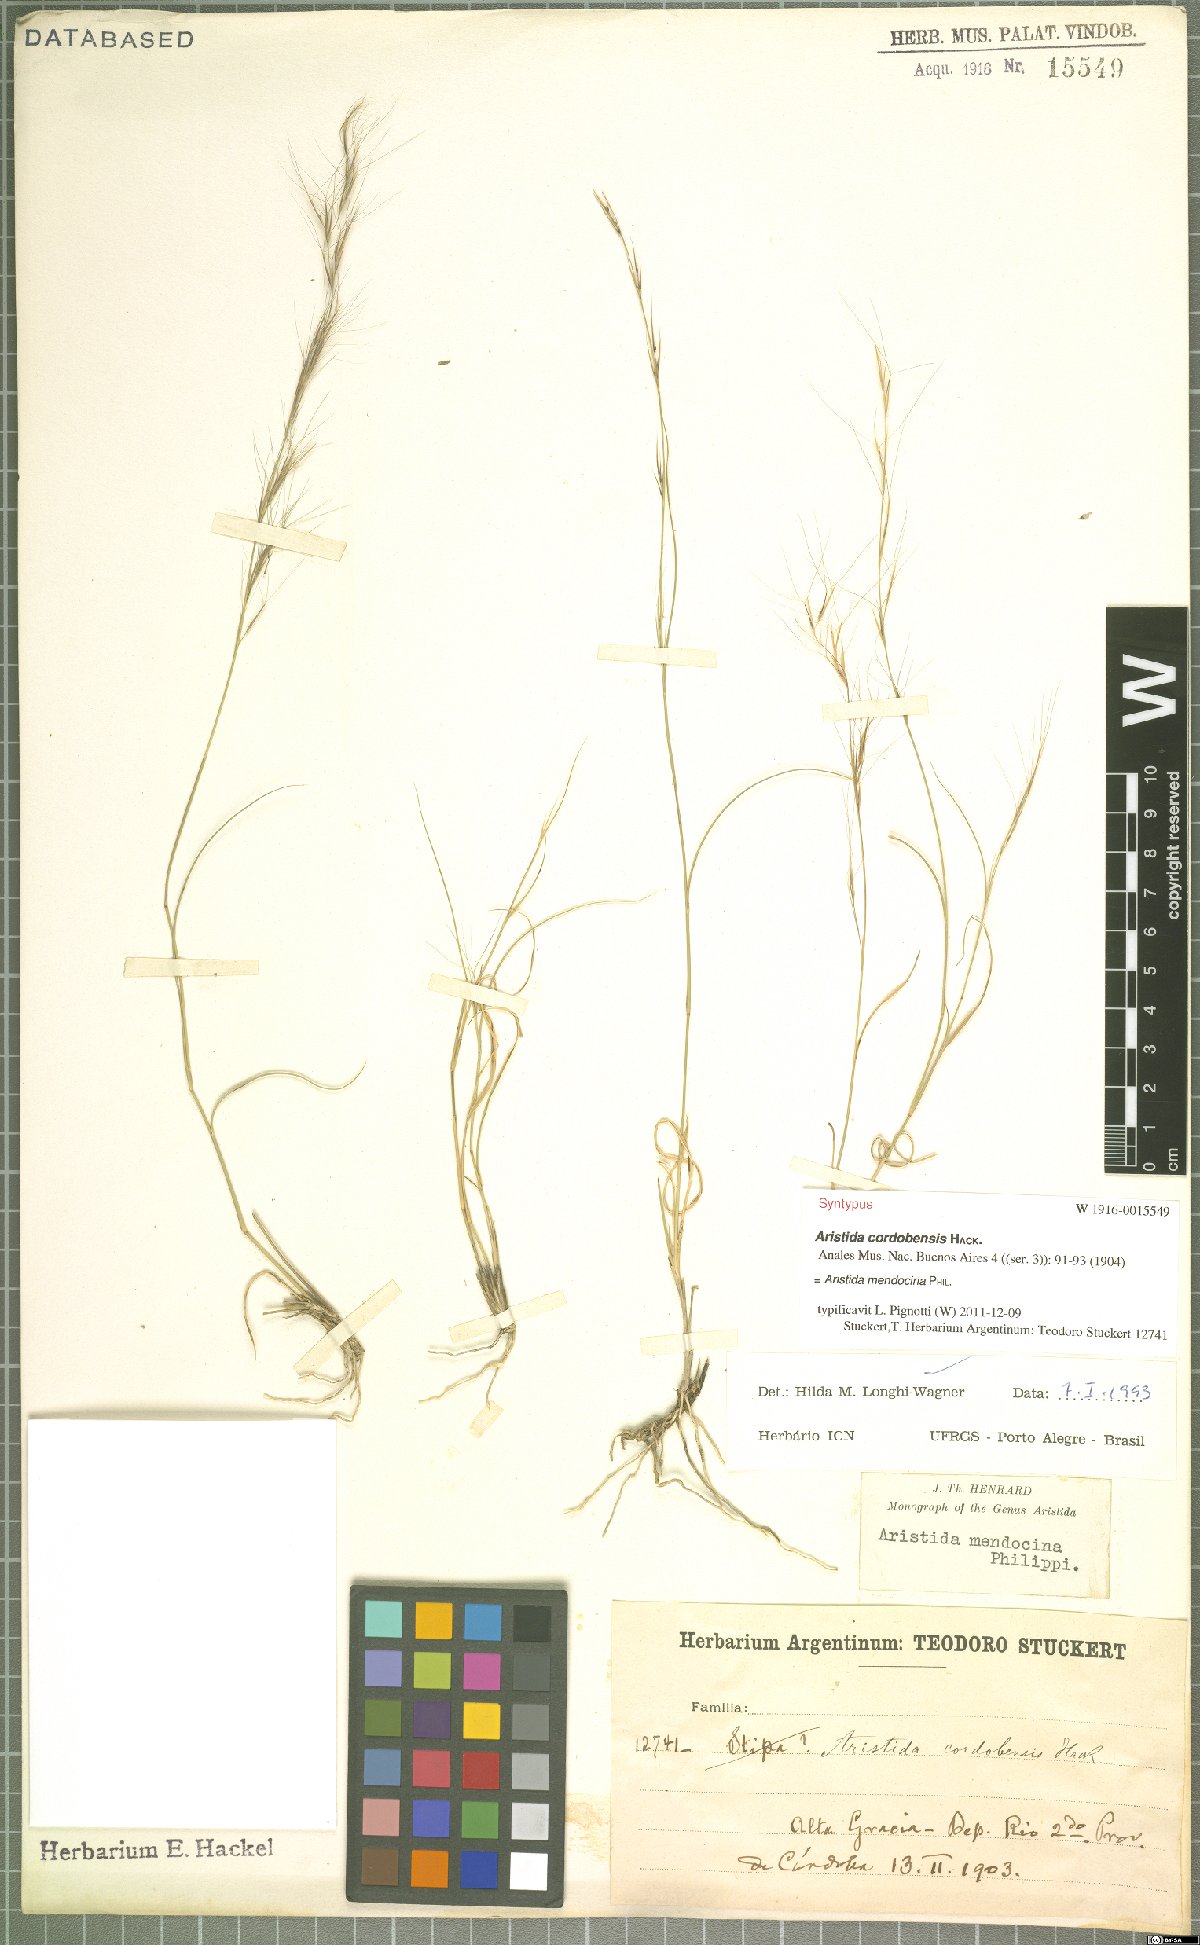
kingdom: Plantae
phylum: Tracheophyta
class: Liliopsida
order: Poales
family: Poaceae
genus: Aristida
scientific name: Aristida mendocina
